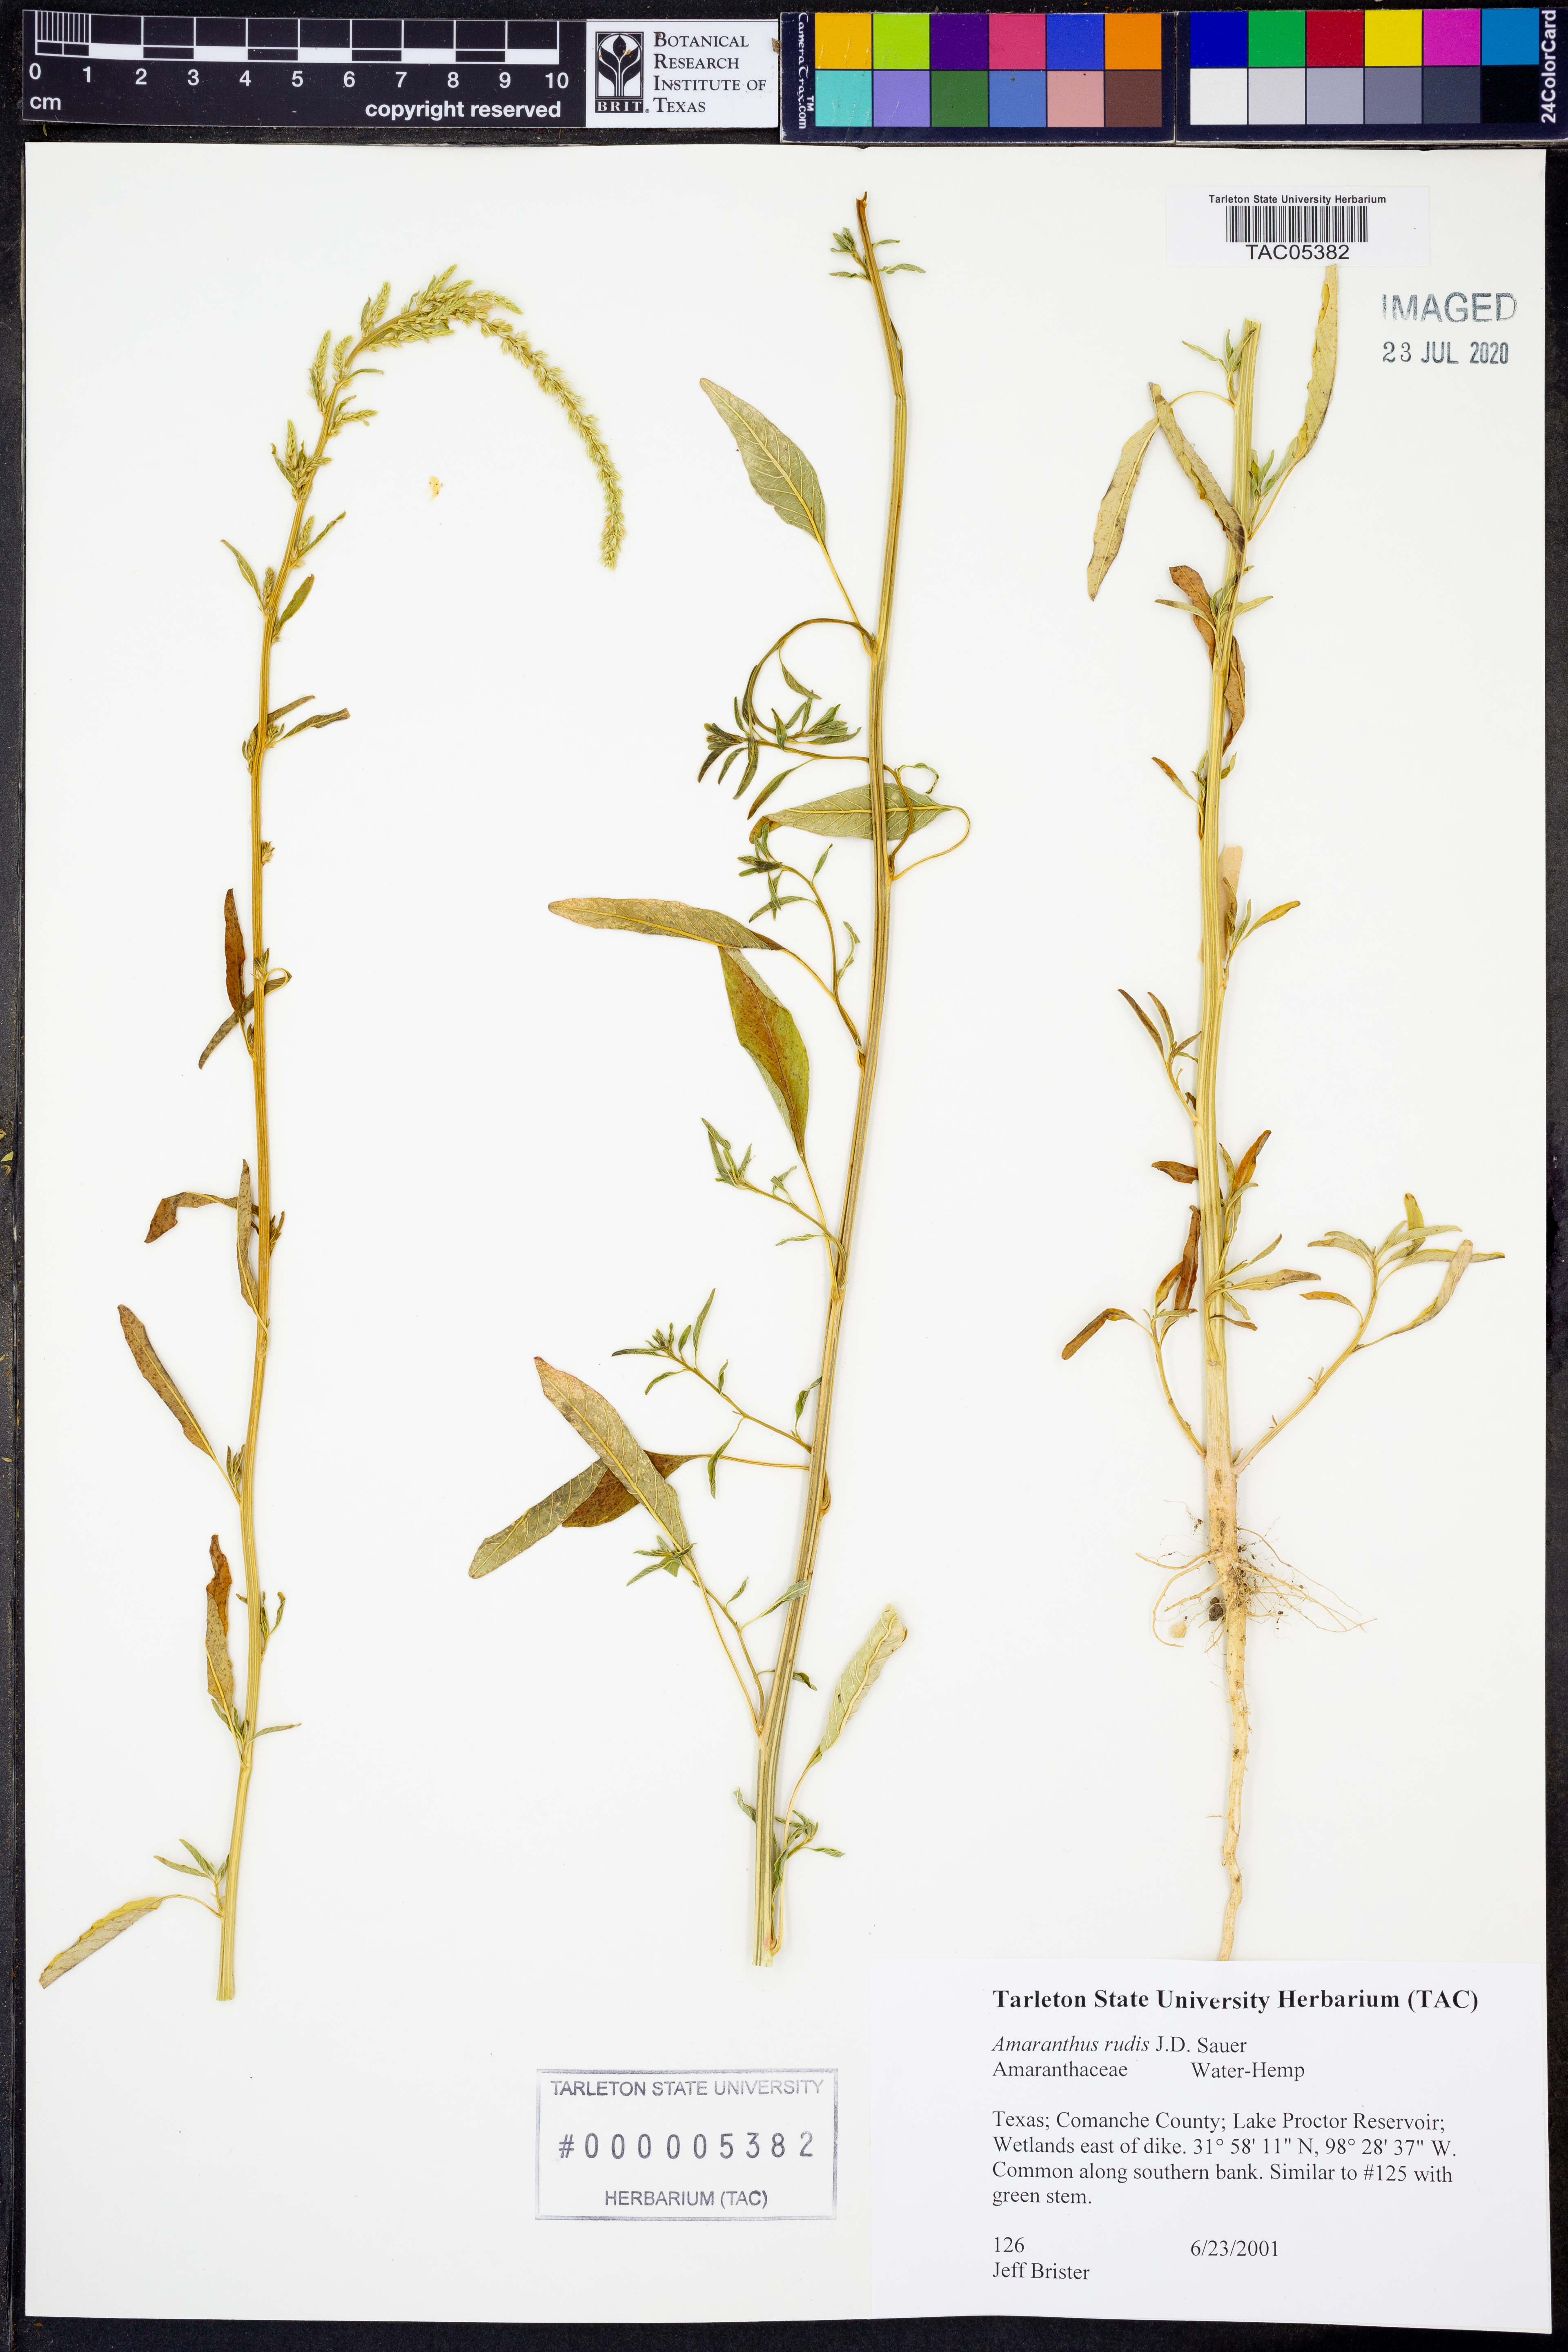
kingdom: Plantae
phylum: Tracheophyta
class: Magnoliopsida
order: Caryophyllales
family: Amaranthaceae
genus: Amaranthus
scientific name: Amaranthus tuberculatus
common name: Rough-fruit amaranth
